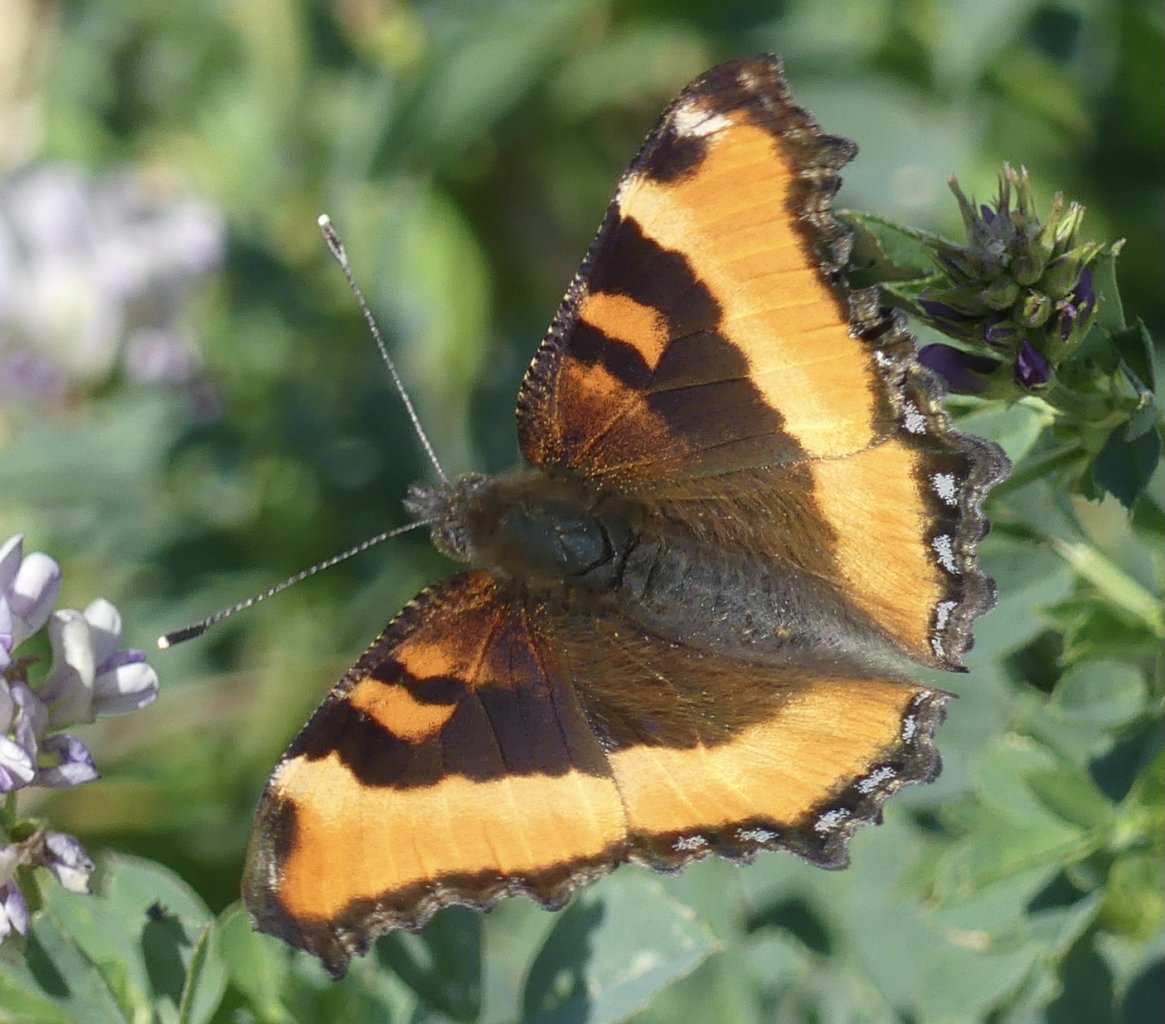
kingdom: Animalia
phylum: Arthropoda
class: Insecta
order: Lepidoptera
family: Nymphalidae
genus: Aglais
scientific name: Aglais milberti
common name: Milbert's Tortoiseshell
